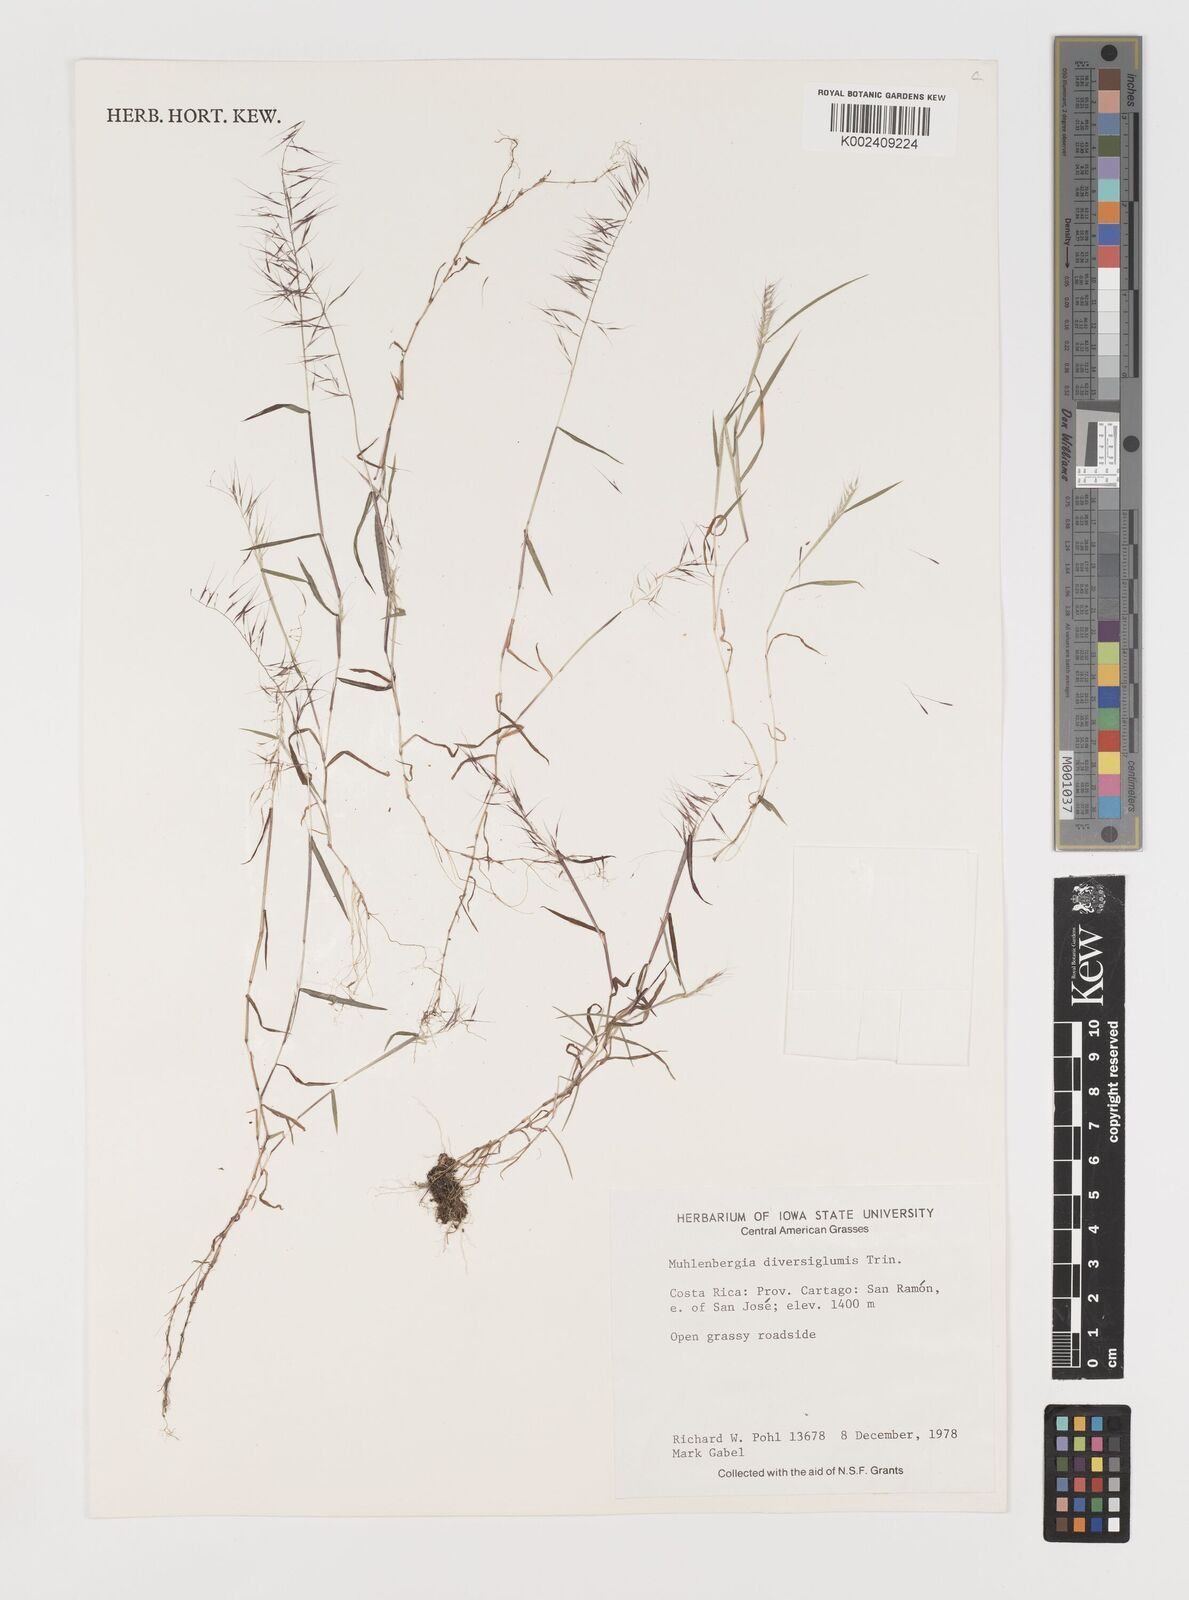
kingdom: Plantae
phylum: Tracheophyta
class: Liliopsida
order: Poales
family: Poaceae
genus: Muhlenbergia
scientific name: Muhlenbergia diversiglumis
